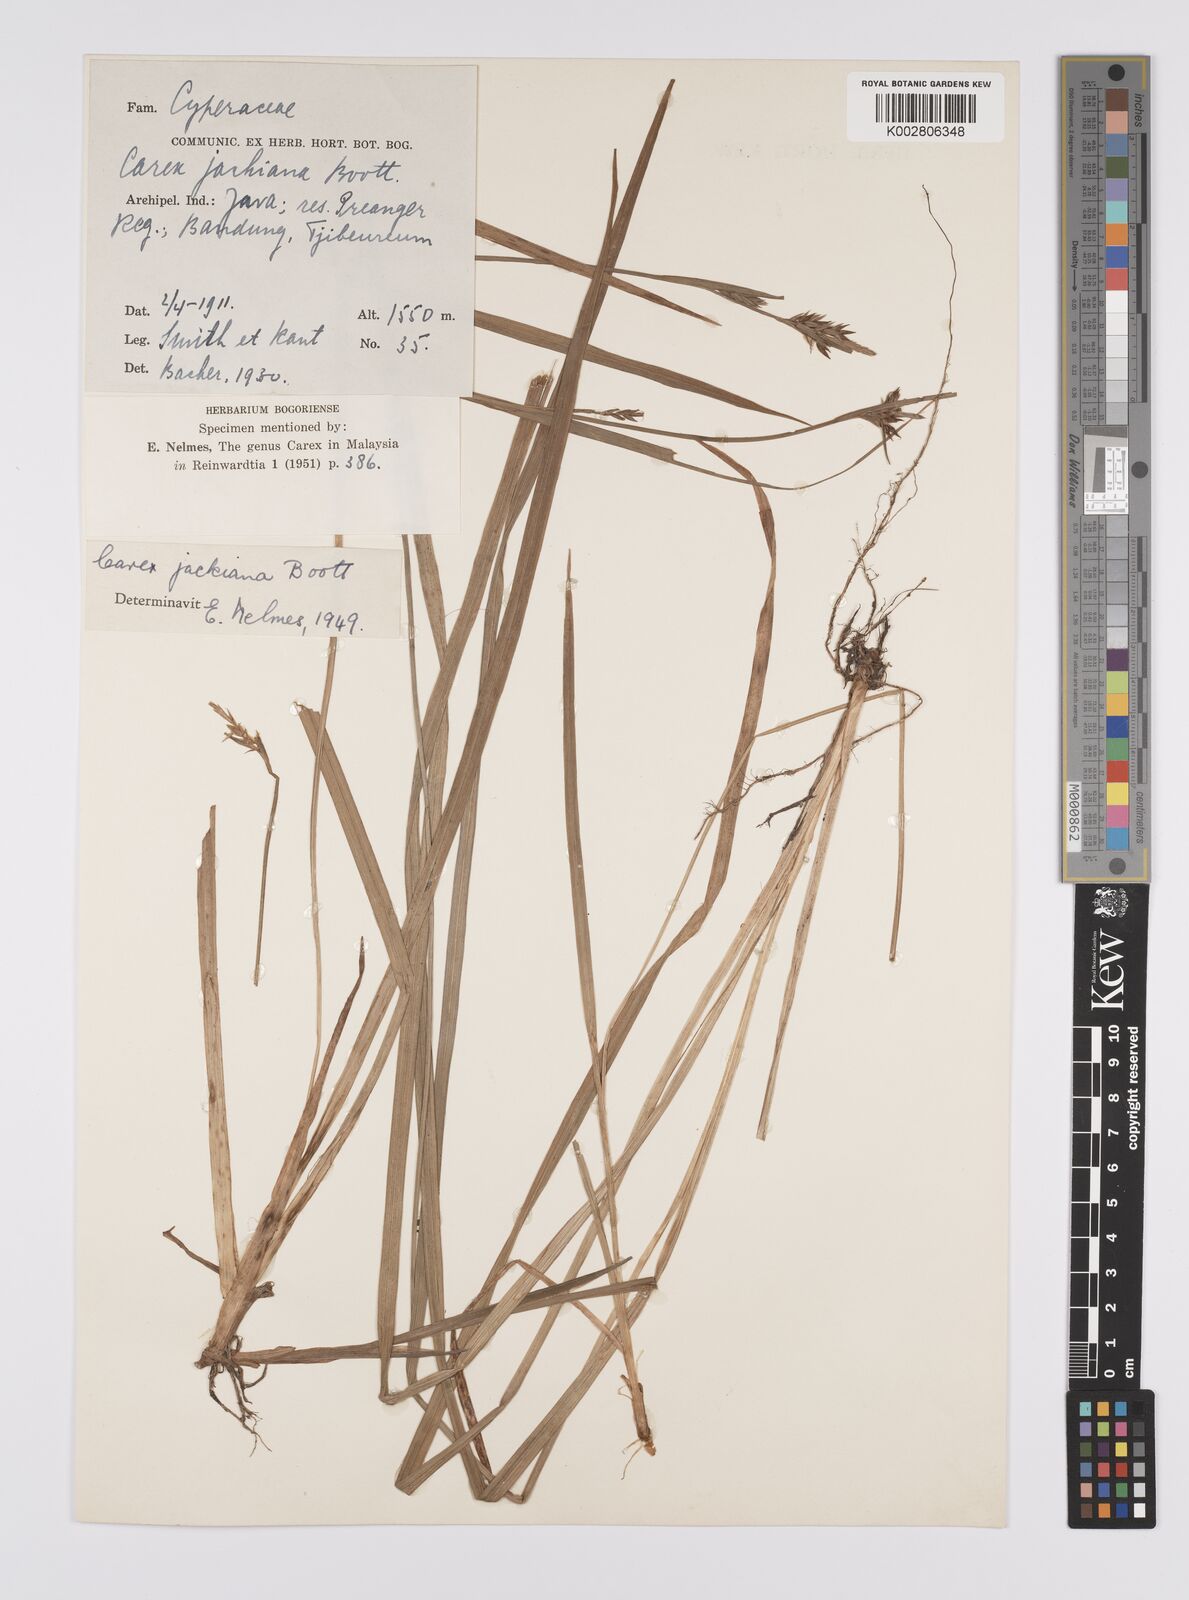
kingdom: Plantae
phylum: Tracheophyta
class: Liliopsida
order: Poales
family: Cyperaceae
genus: Carex
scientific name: Carex jackiana
